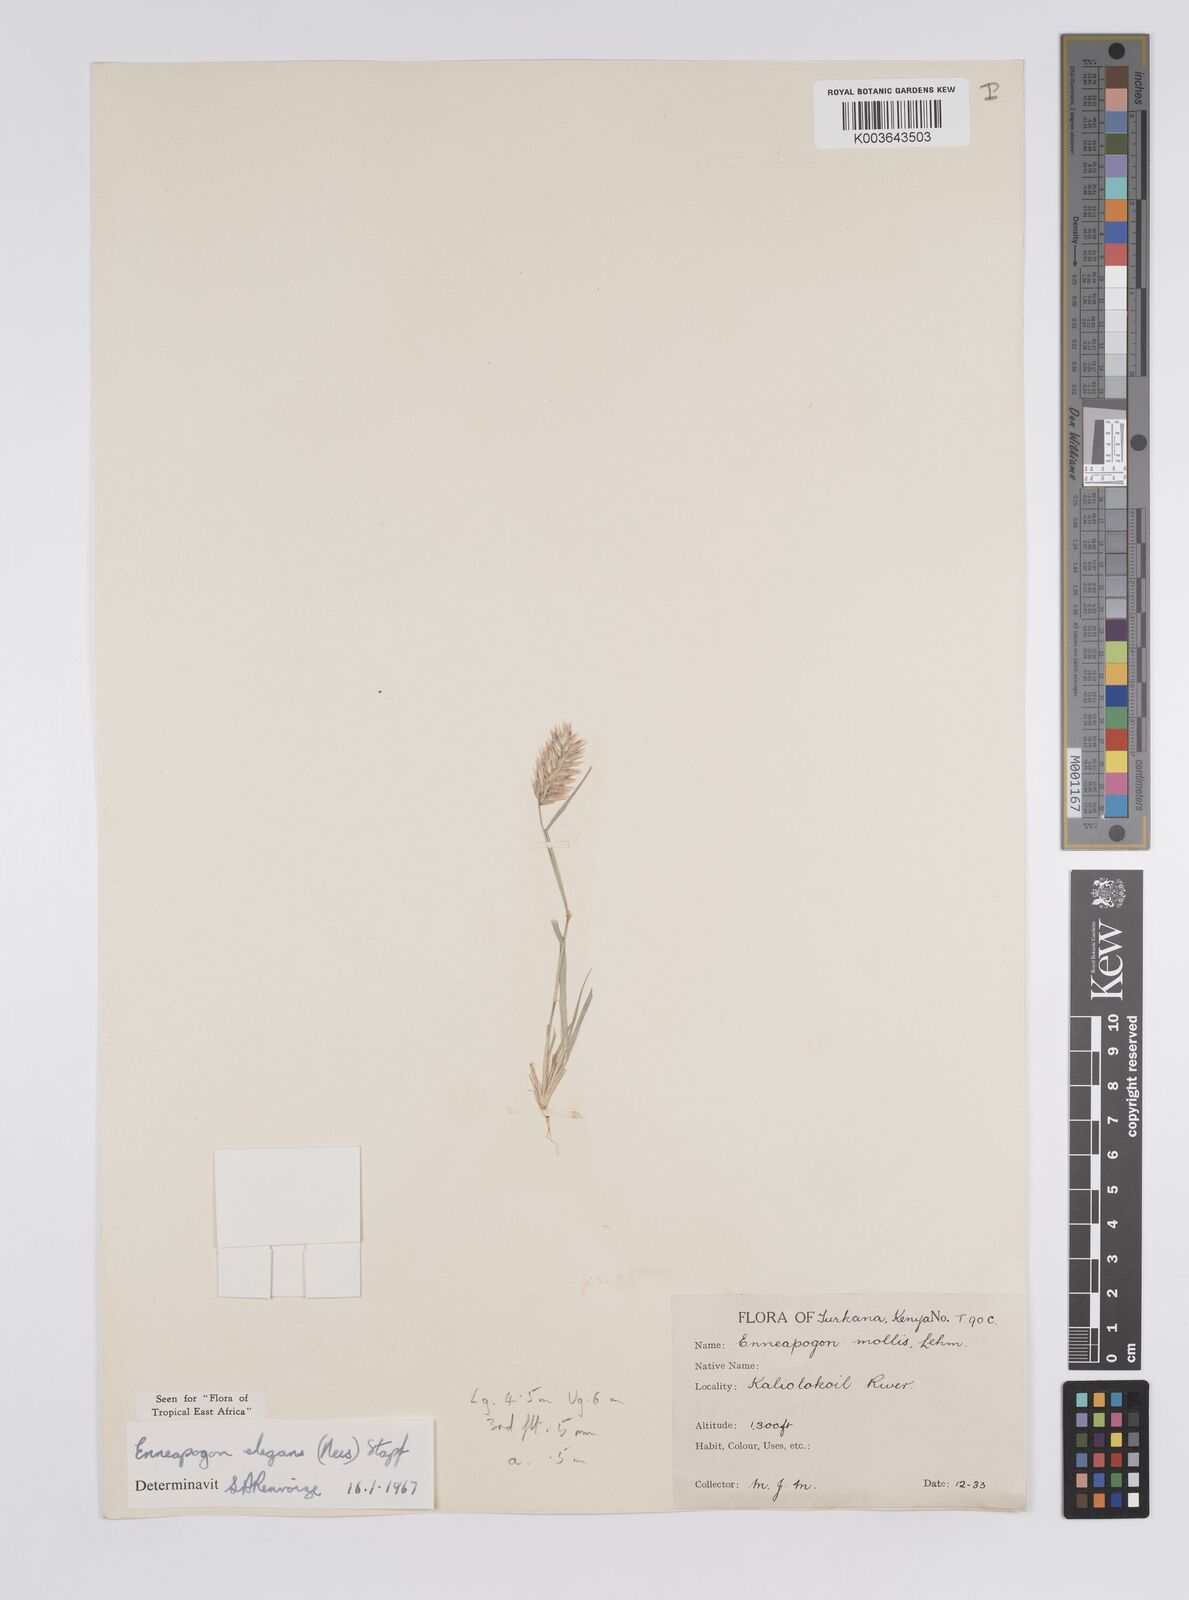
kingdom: Plantae
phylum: Tracheophyta
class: Liliopsida
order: Poales
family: Poaceae
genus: Enneapogon
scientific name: Enneapogon persicus
